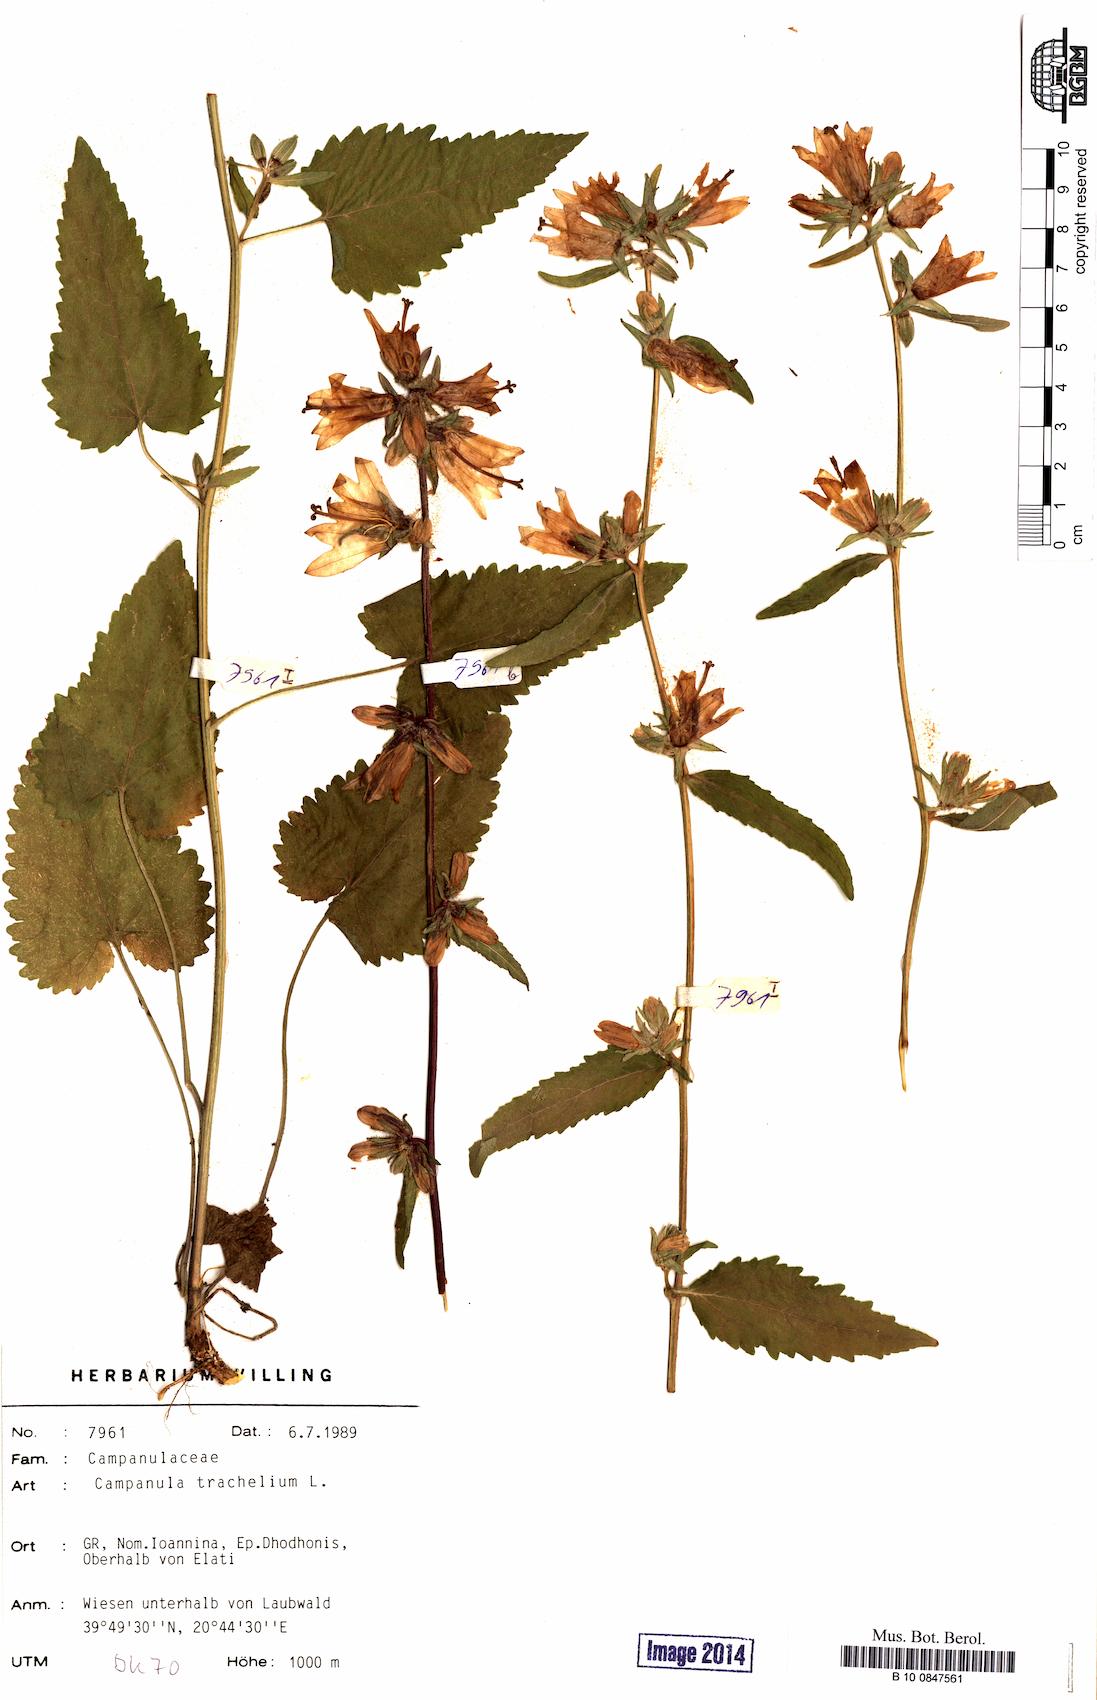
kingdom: Plantae
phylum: Tracheophyta
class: Magnoliopsida
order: Asterales
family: Campanulaceae
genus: Campanula
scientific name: Campanula trachelium
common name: Nettle-leaved bellflower
